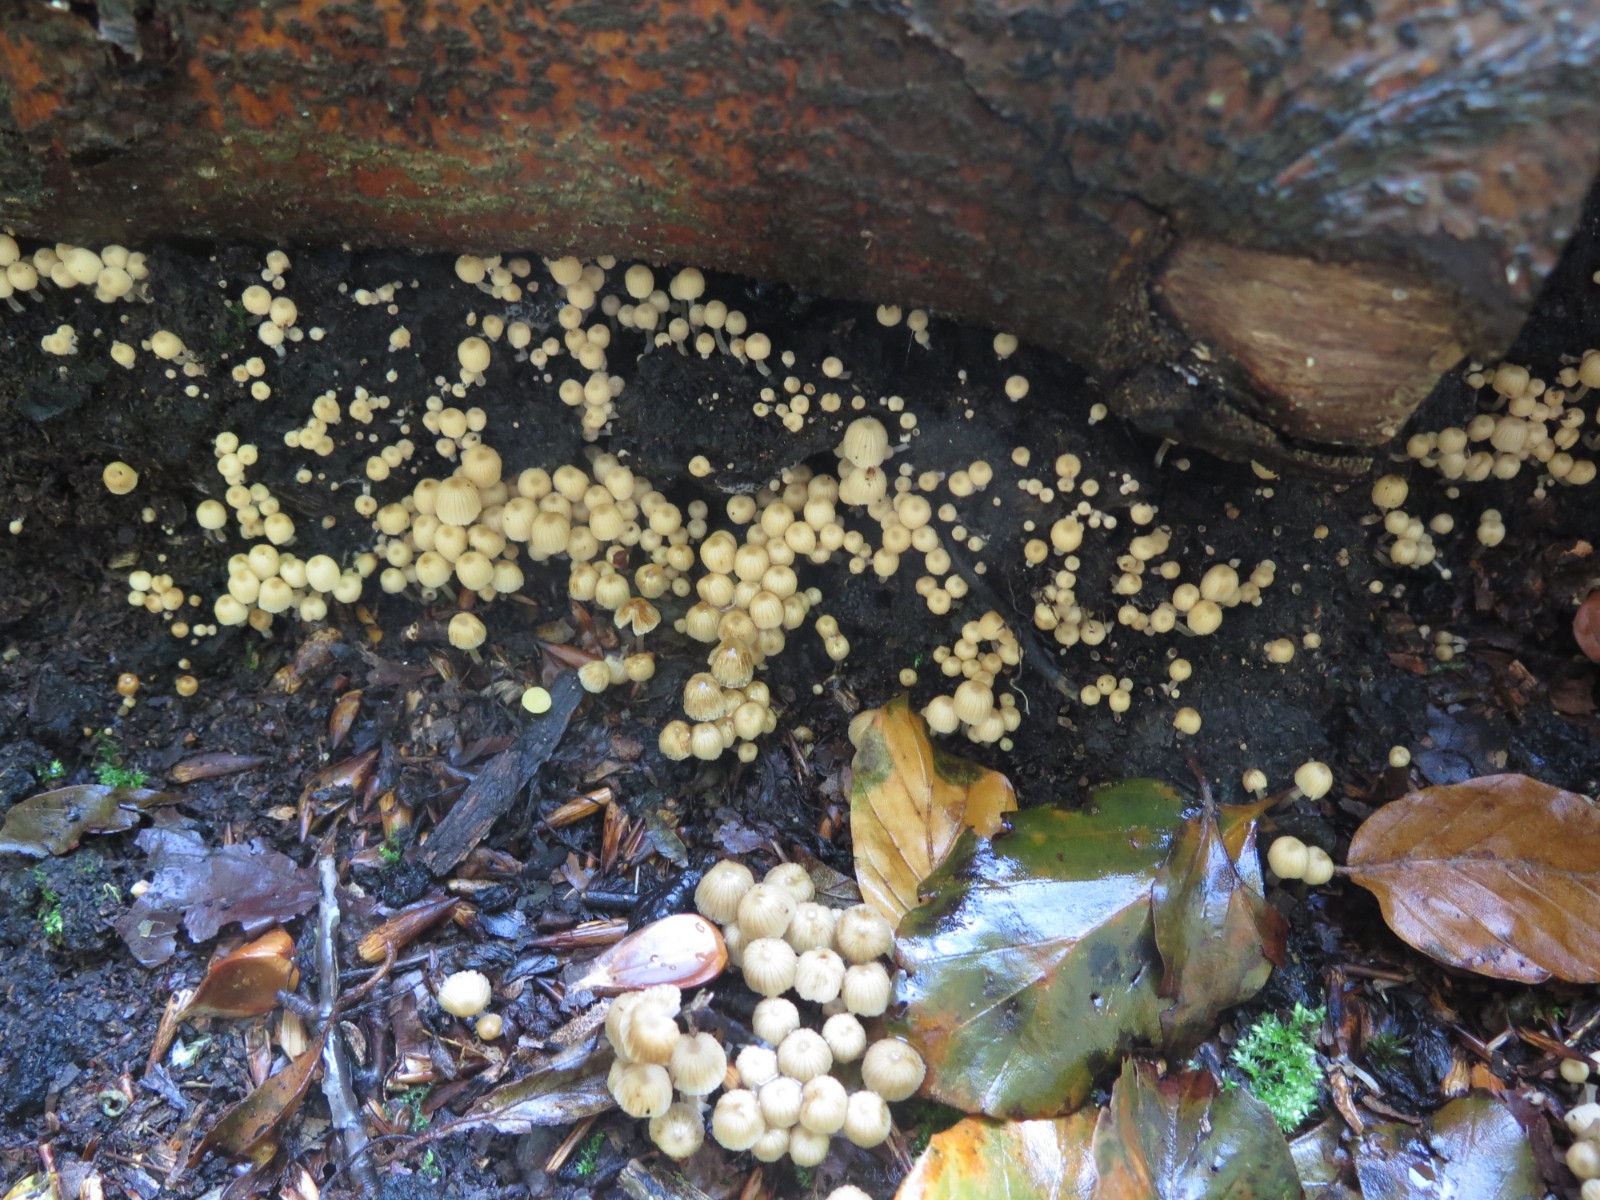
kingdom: Fungi
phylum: Basidiomycota
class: Agaricomycetes
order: Agaricales
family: Psathyrellaceae
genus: Coprinellus
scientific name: Coprinellus disseminatus
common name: bredsået blækhat
